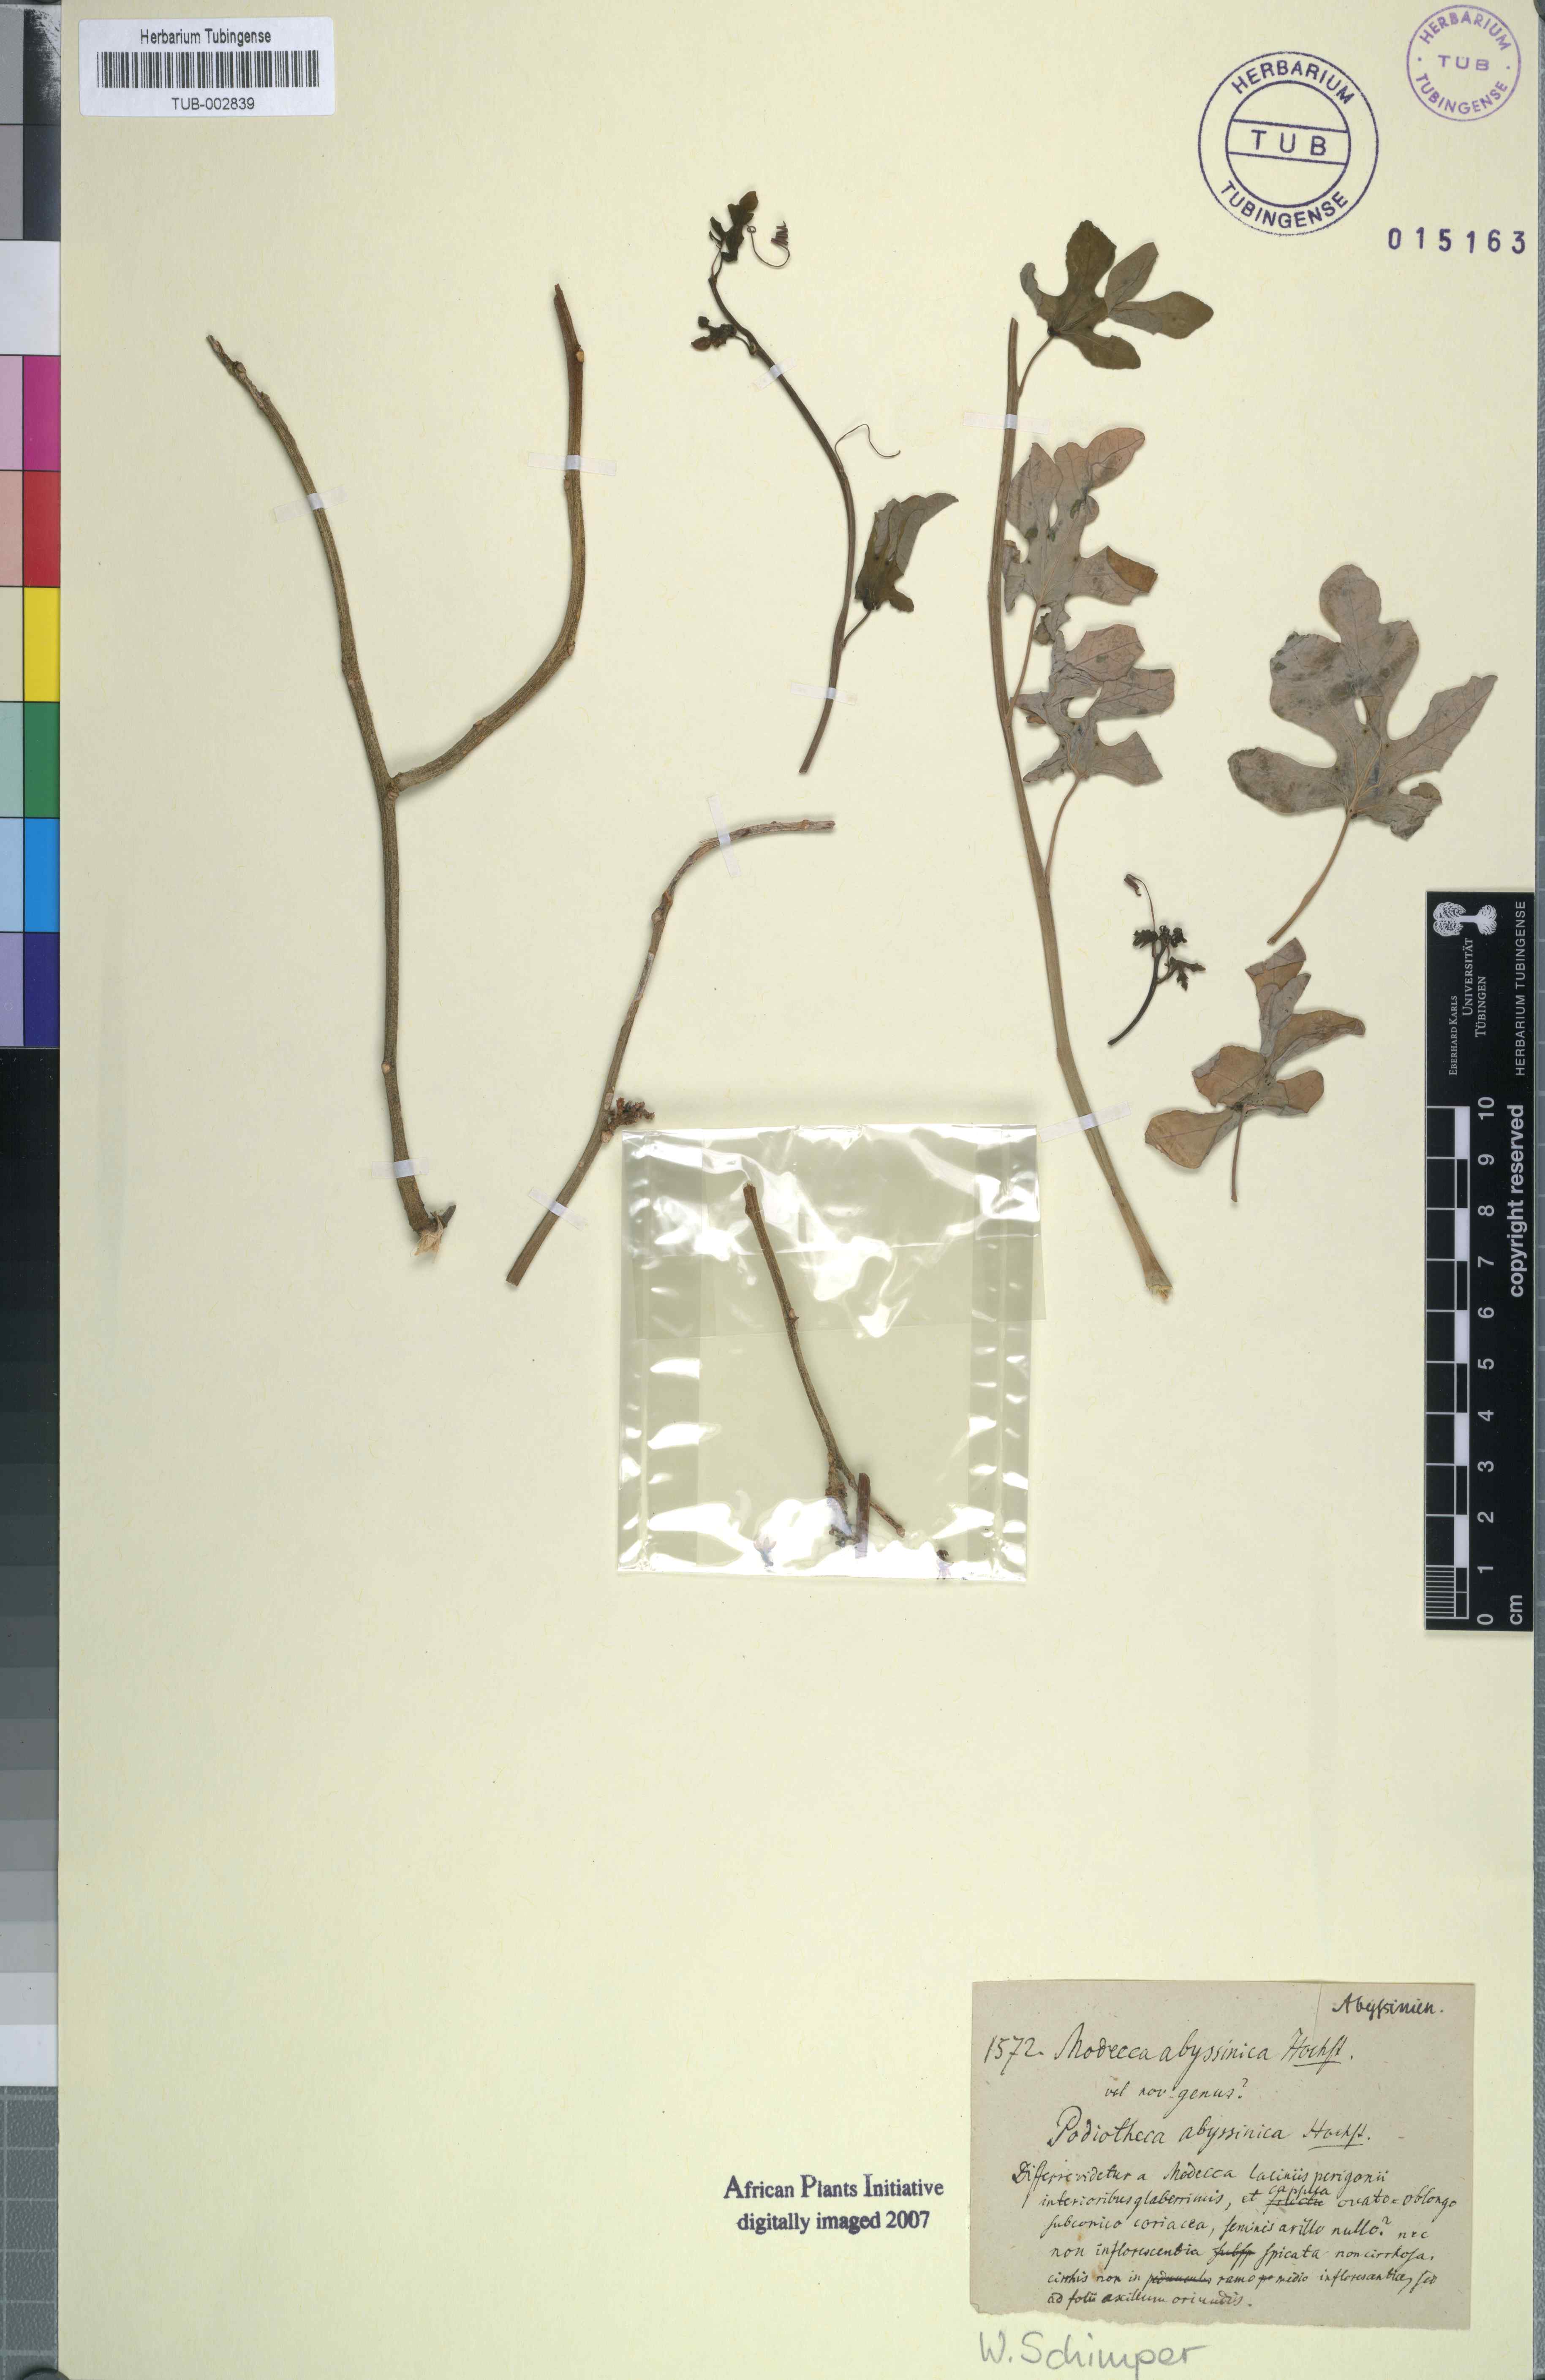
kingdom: Plantae
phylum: Tracheophyta
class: Magnoliopsida
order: Malpighiales
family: Passifloraceae
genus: Adenia
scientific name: Adenia venenata
